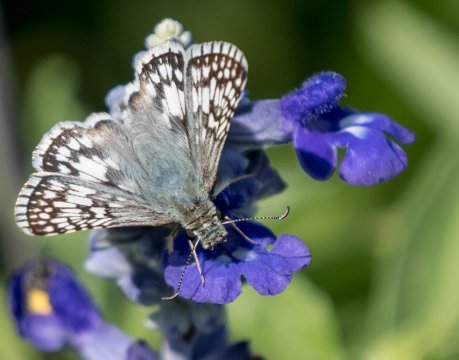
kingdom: Animalia
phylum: Arthropoda
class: Insecta
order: Lepidoptera
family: Hesperiidae
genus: Pyrgus
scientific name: Pyrgus communis
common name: Common Checkered-Skipper
